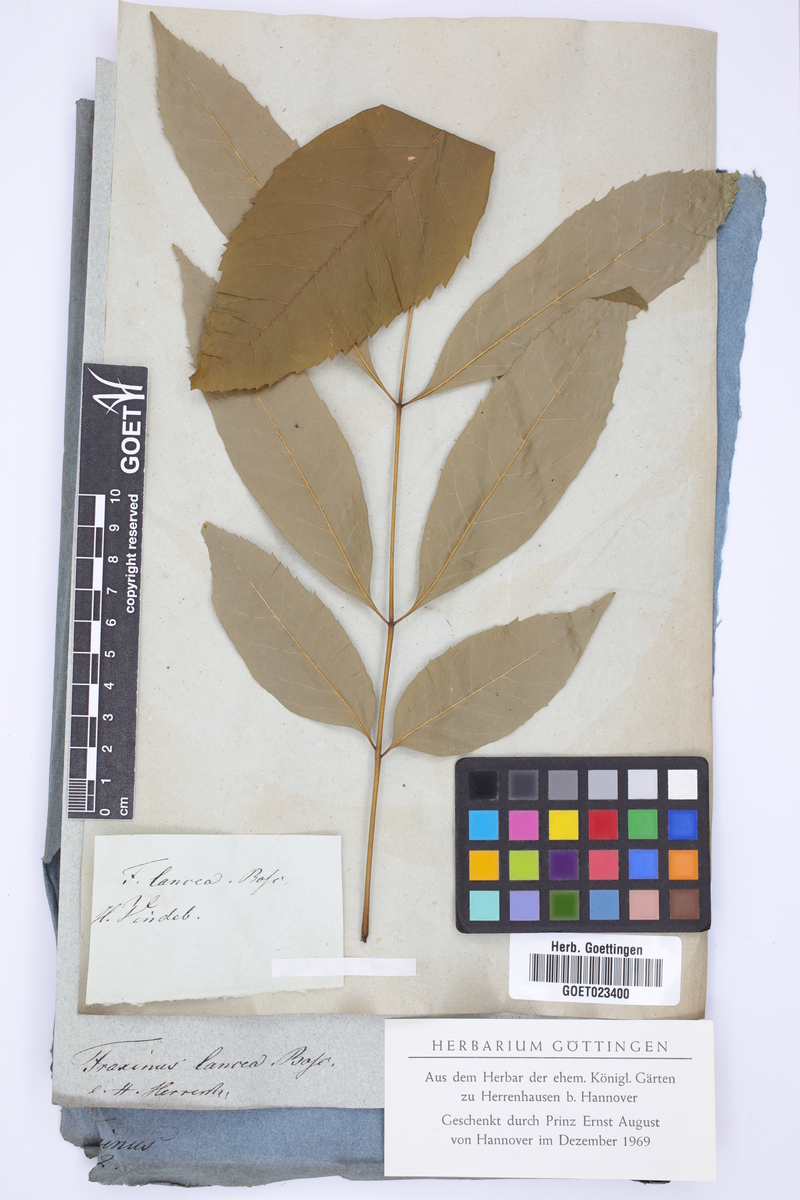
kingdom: Plantae
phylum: Tracheophyta
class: Magnoliopsida
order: Lamiales
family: Oleaceae
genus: Fraxinus
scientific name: Fraxinus pennsylvanica
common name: Green ash
